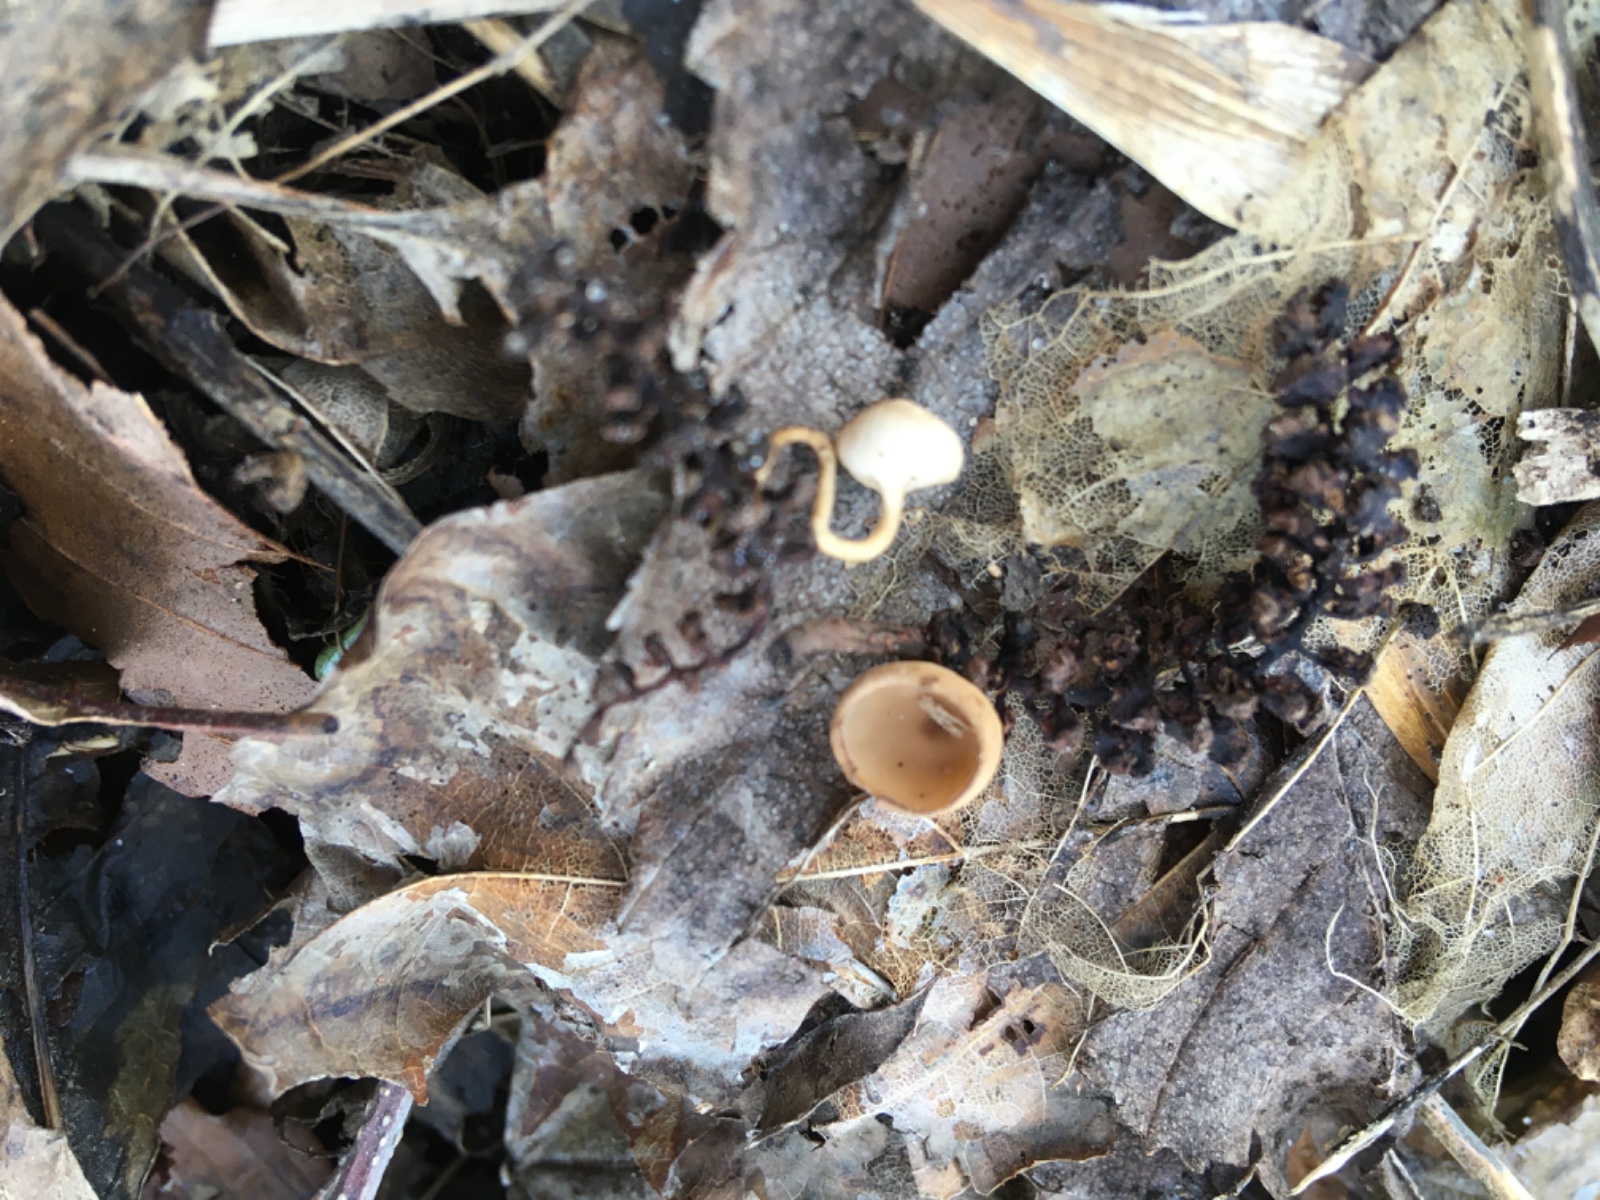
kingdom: Fungi
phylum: Ascomycota
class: Leotiomycetes
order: Helotiales
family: Sclerotiniaceae
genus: Ciboria
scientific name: Ciboria amentacea
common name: ellerakle-knoldskive
